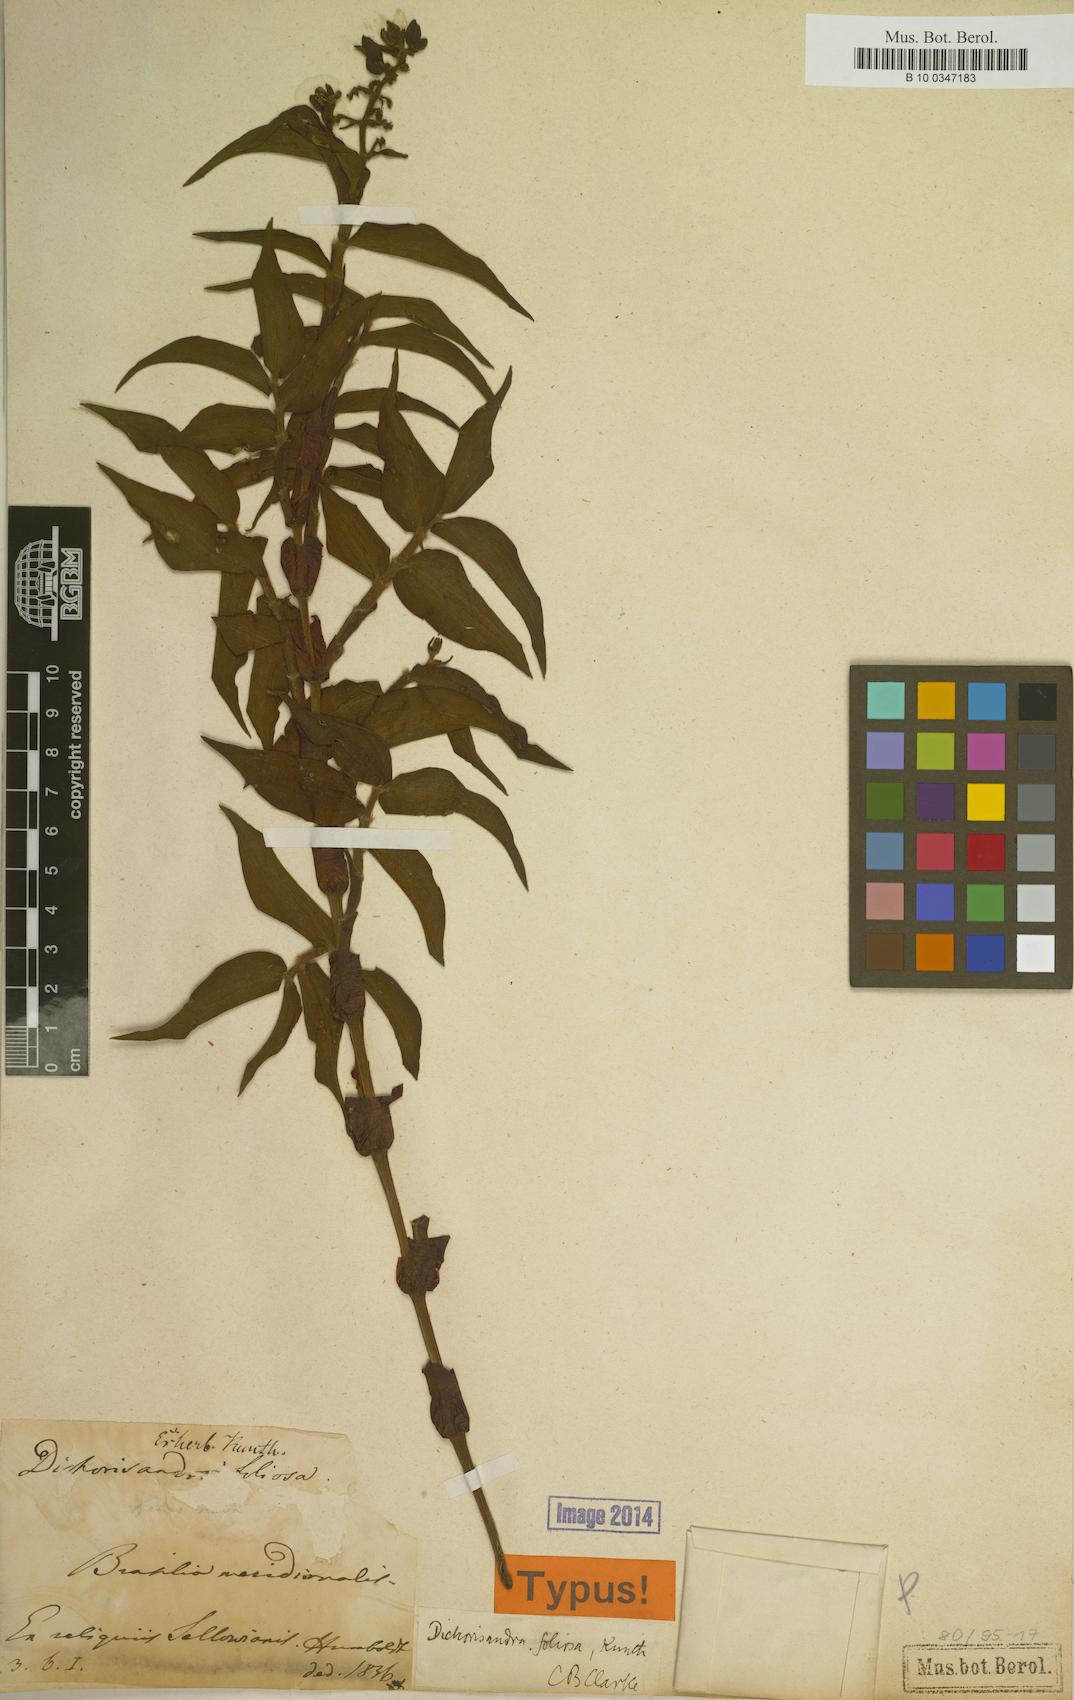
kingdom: Plantae
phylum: Tracheophyta
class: Liliopsida
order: Commelinales
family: Commelinaceae
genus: Dichorisandra
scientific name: Dichorisandra pubescens
